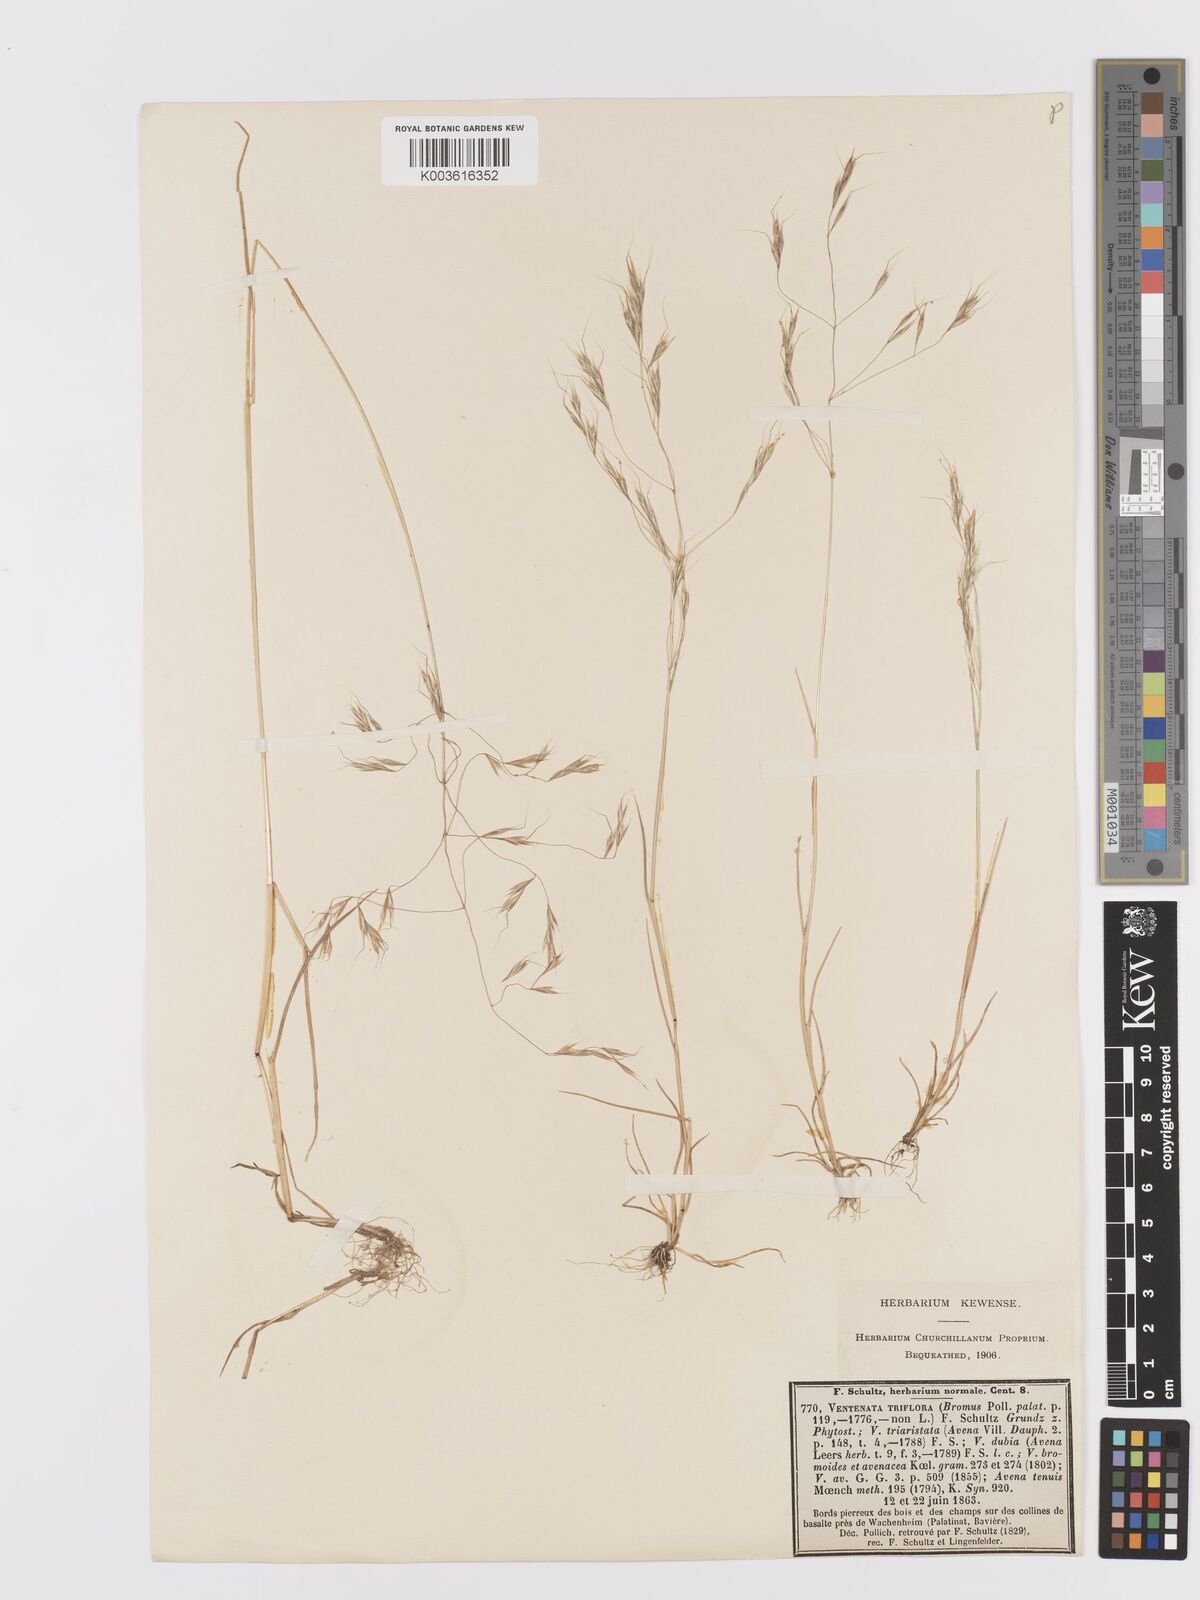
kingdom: Plantae
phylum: Tracheophyta
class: Liliopsida
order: Poales
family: Poaceae
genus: Ventenata
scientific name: Ventenata dubia
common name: North africa grass
